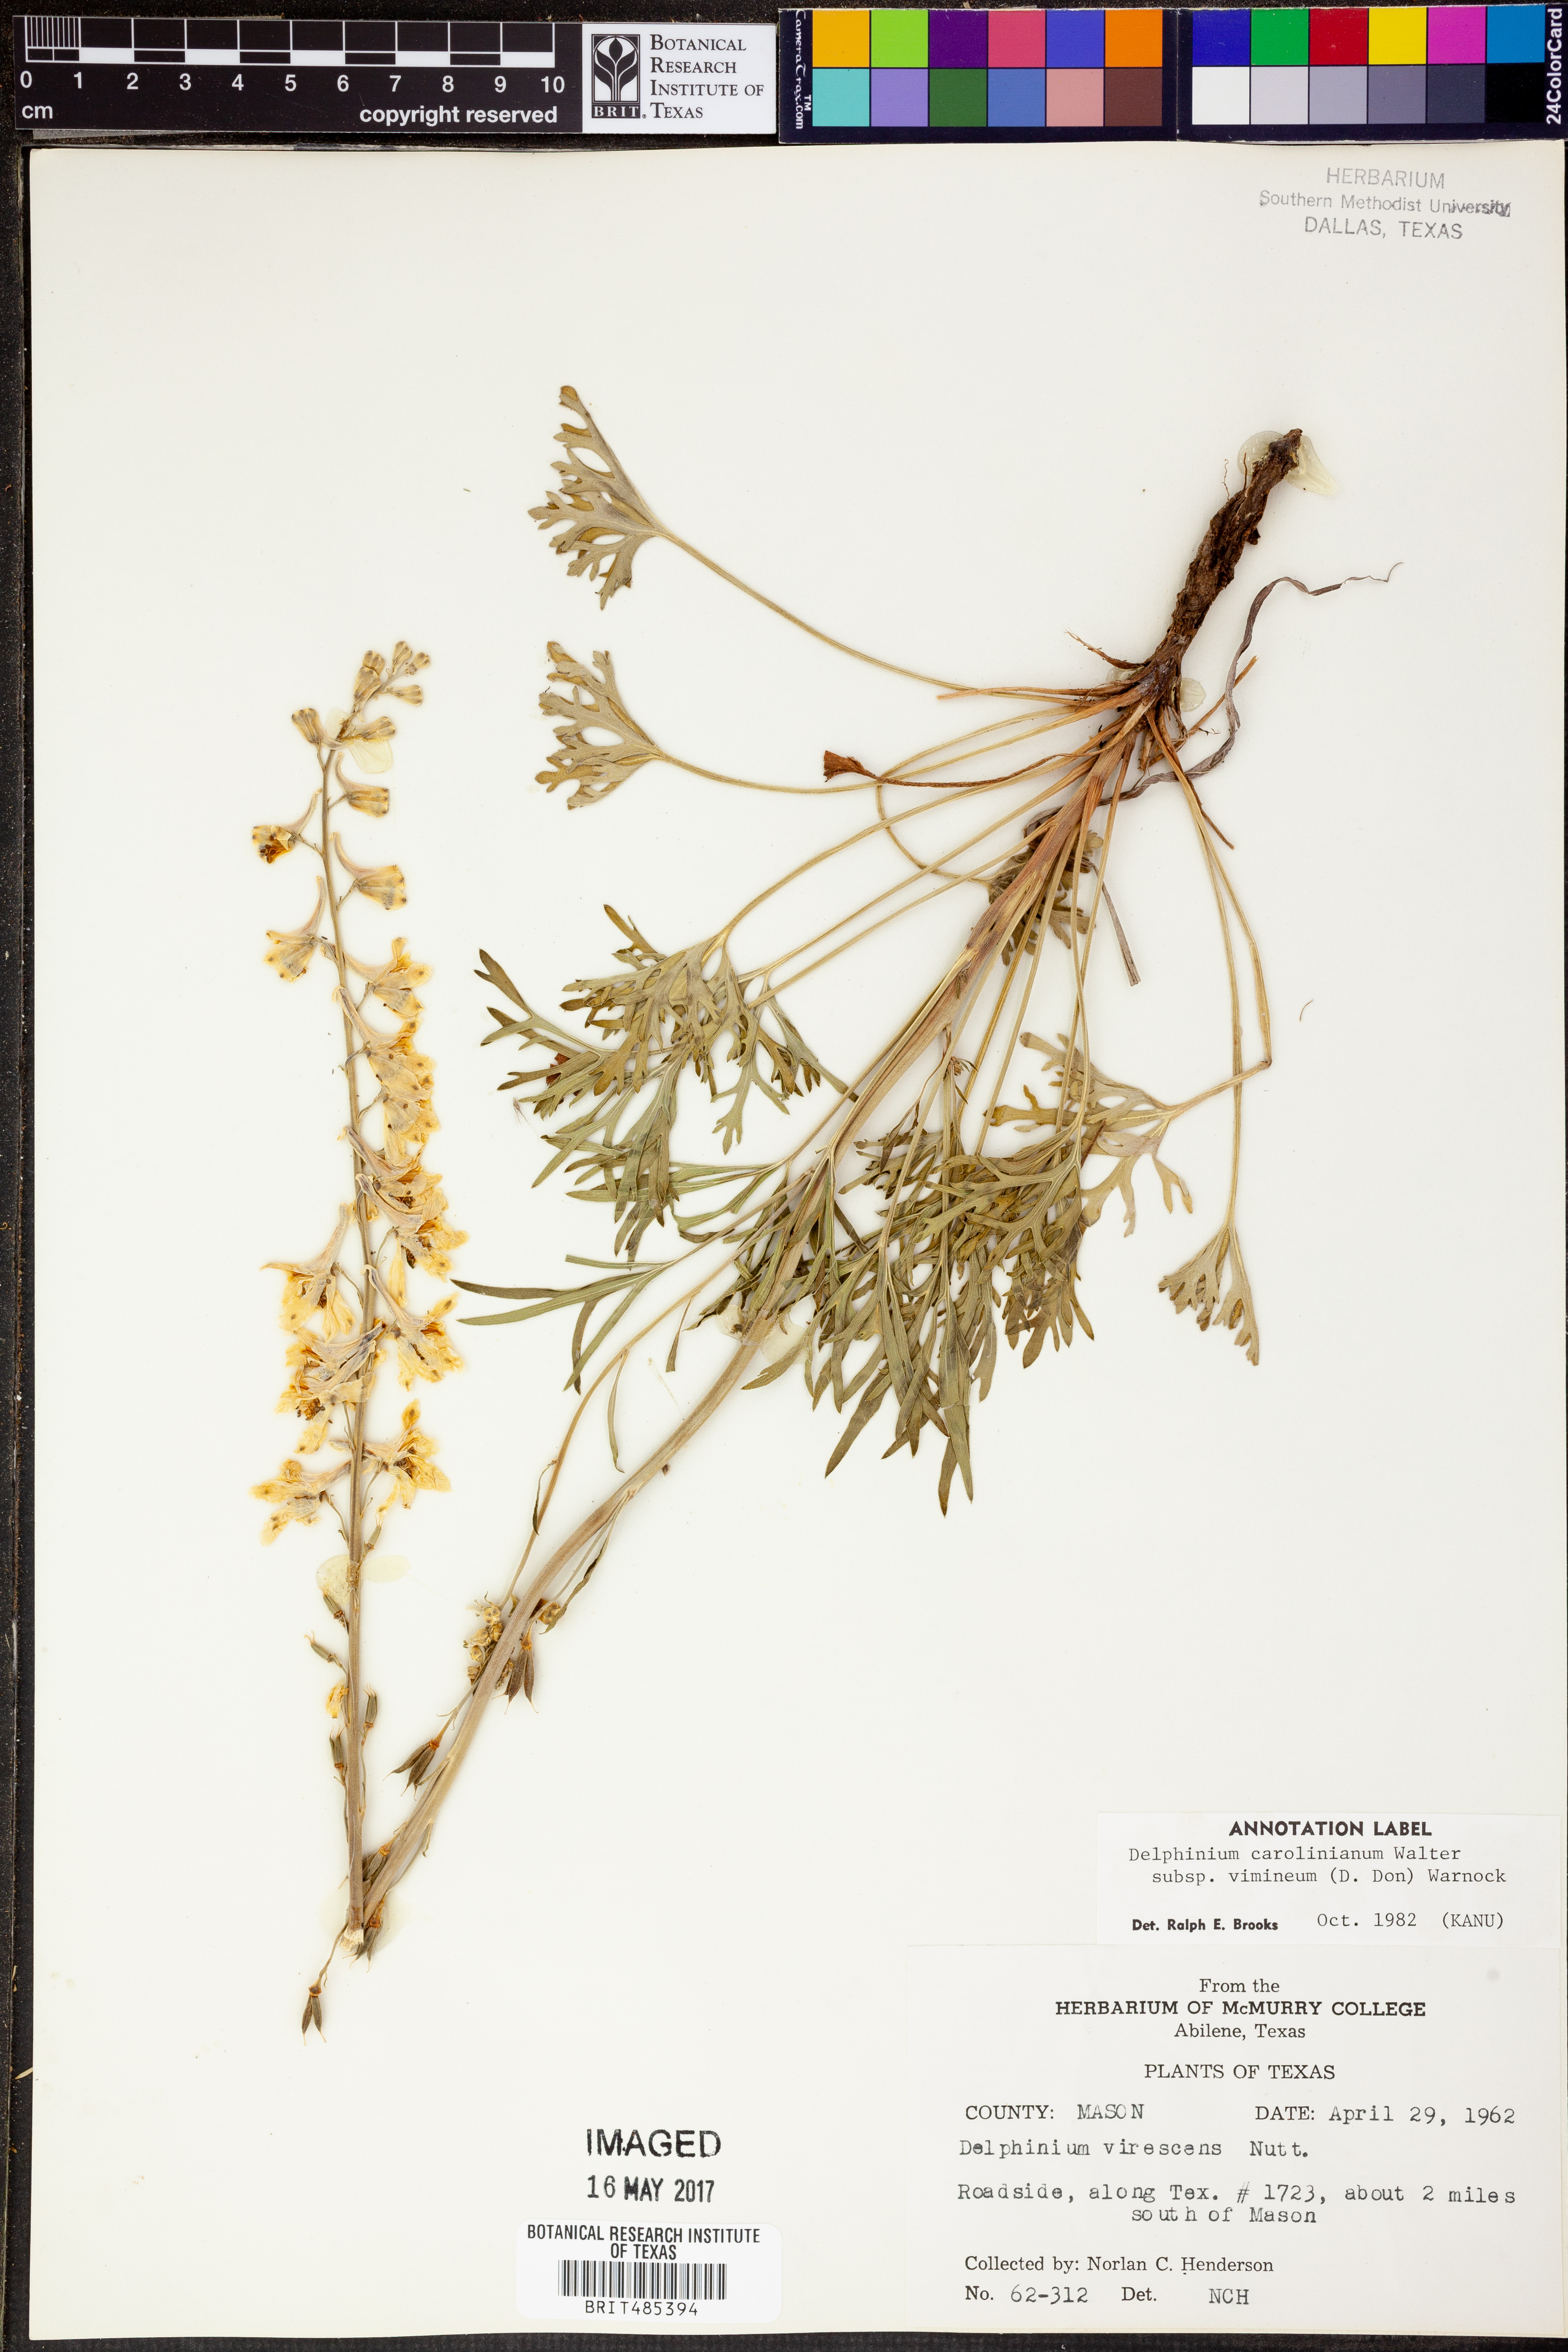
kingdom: Plantae
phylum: Tracheophyta
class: Magnoliopsida
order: Ranunculales
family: Ranunculaceae
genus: Delphinium
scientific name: Delphinium carolinianum
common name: Carolina larkspur
